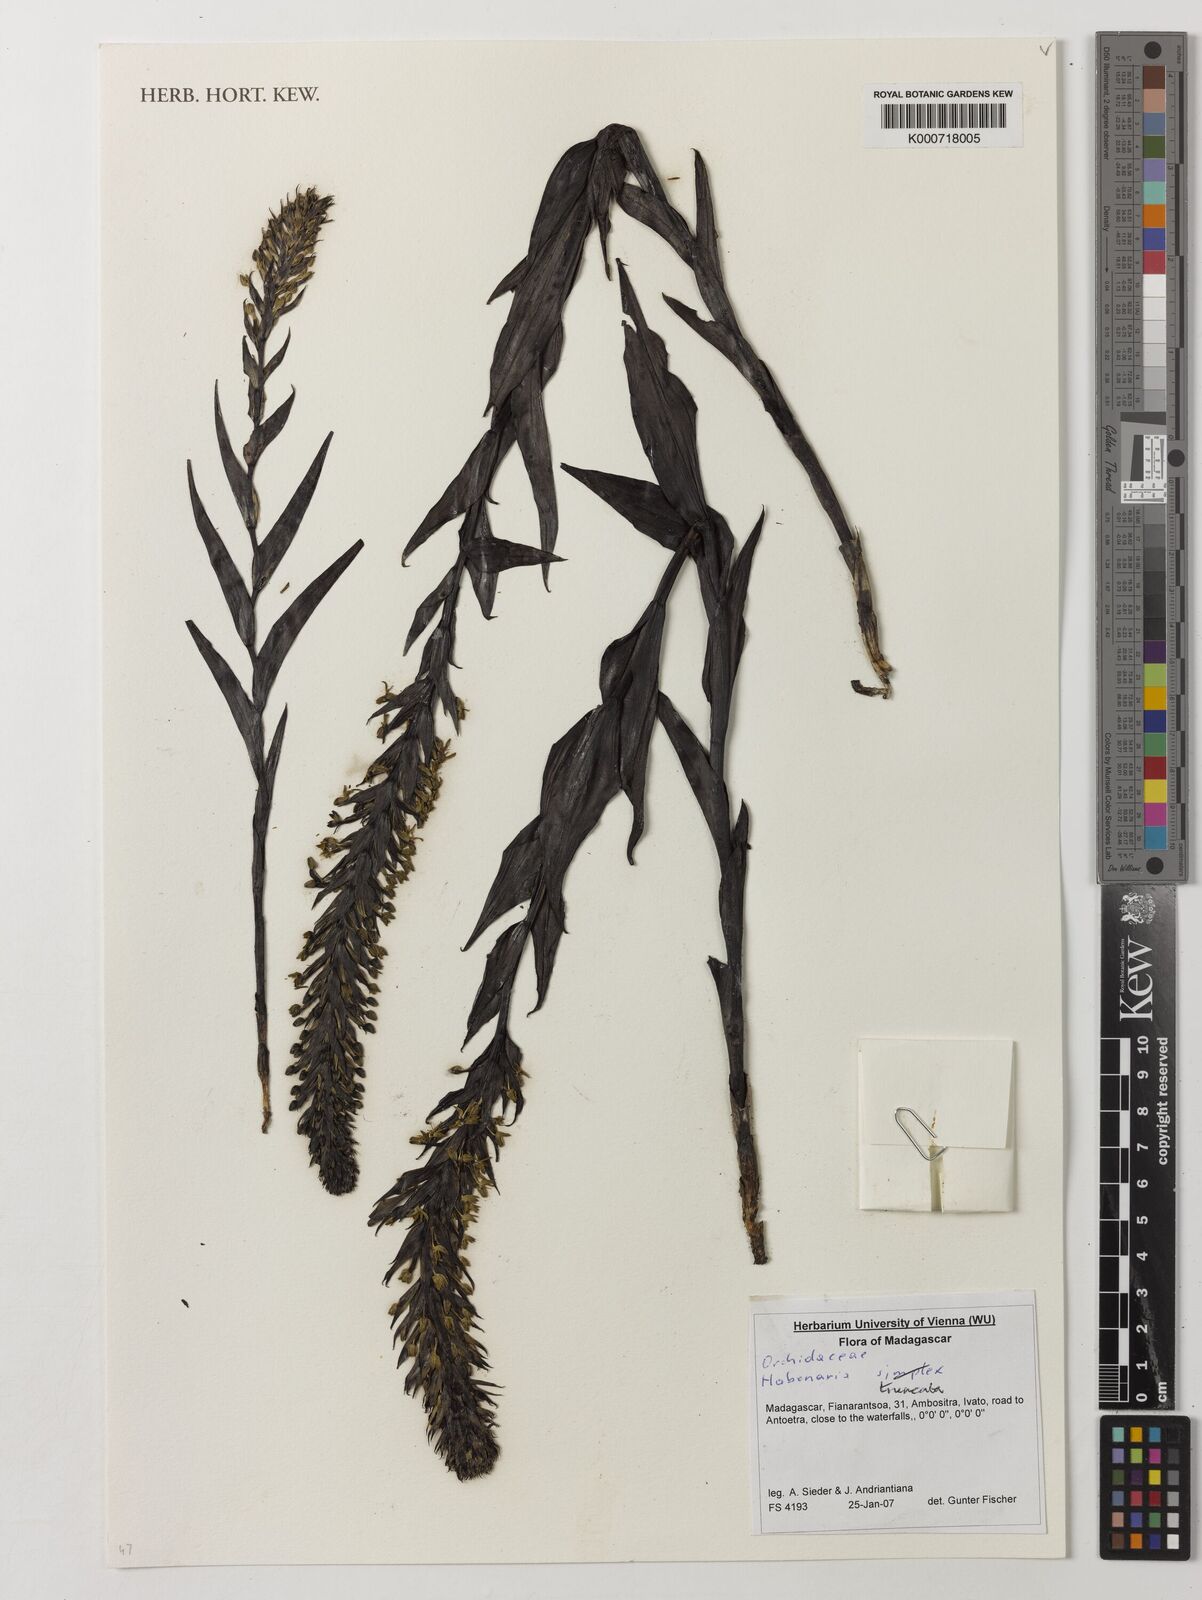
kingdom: Plantae
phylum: Tracheophyta
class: Liliopsida
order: Asparagales
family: Orchidaceae
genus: Habenaria
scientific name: Habenaria simplex
